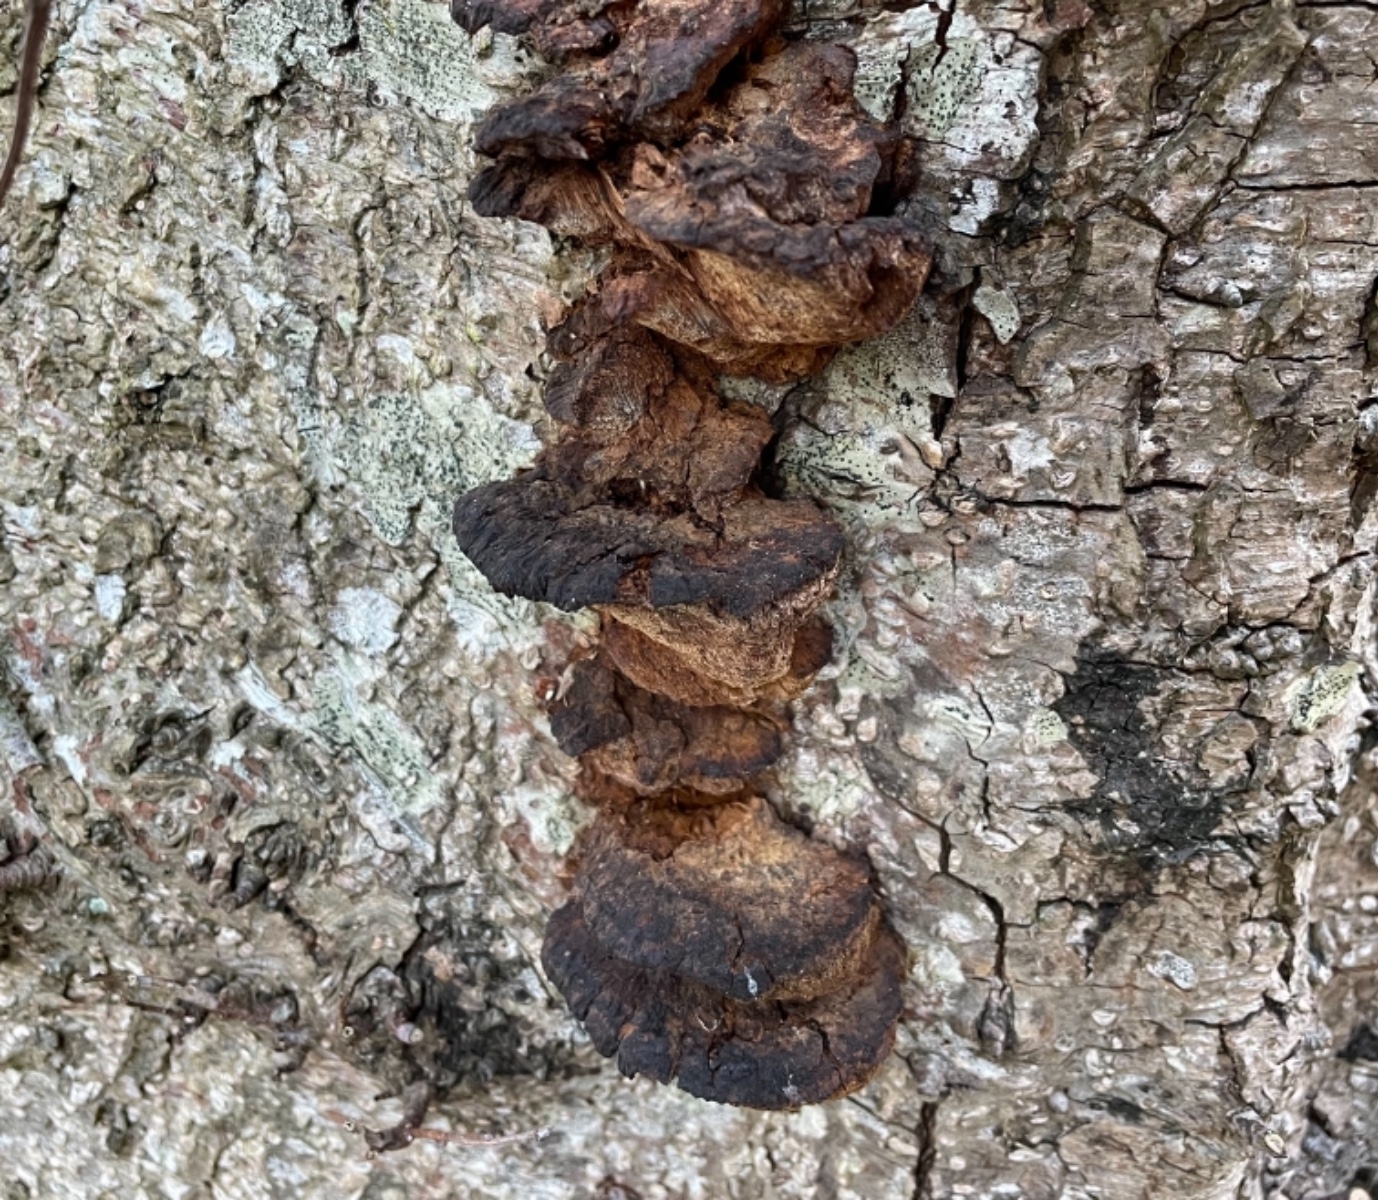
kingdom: Fungi
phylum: Basidiomycota
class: Agaricomycetes
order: Hymenochaetales
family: Hymenochaetaceae
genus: Xanthoporia
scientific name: Xanthoporia radiata
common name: elle-spejlporesvamp
